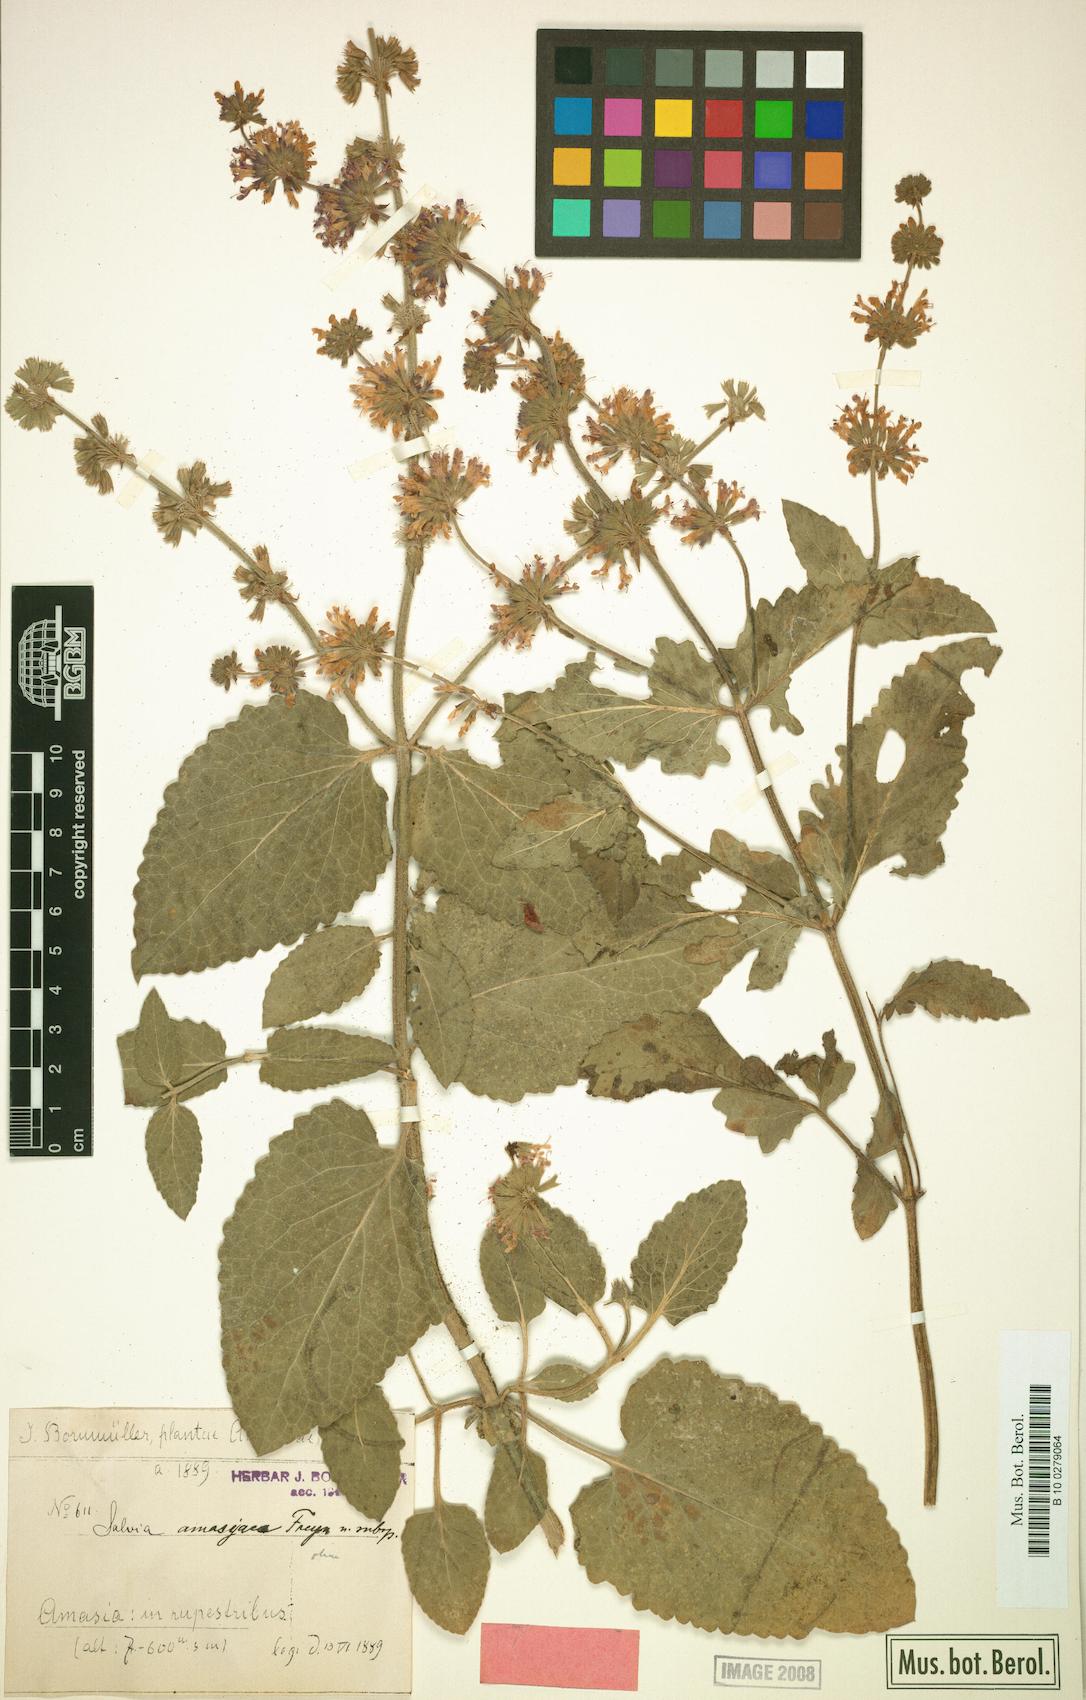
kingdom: Plantae
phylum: Tracheophyta
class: Magnoliopsida
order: Lamiales
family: Lamiaceae
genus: Salvia
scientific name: Salvia amasiana
